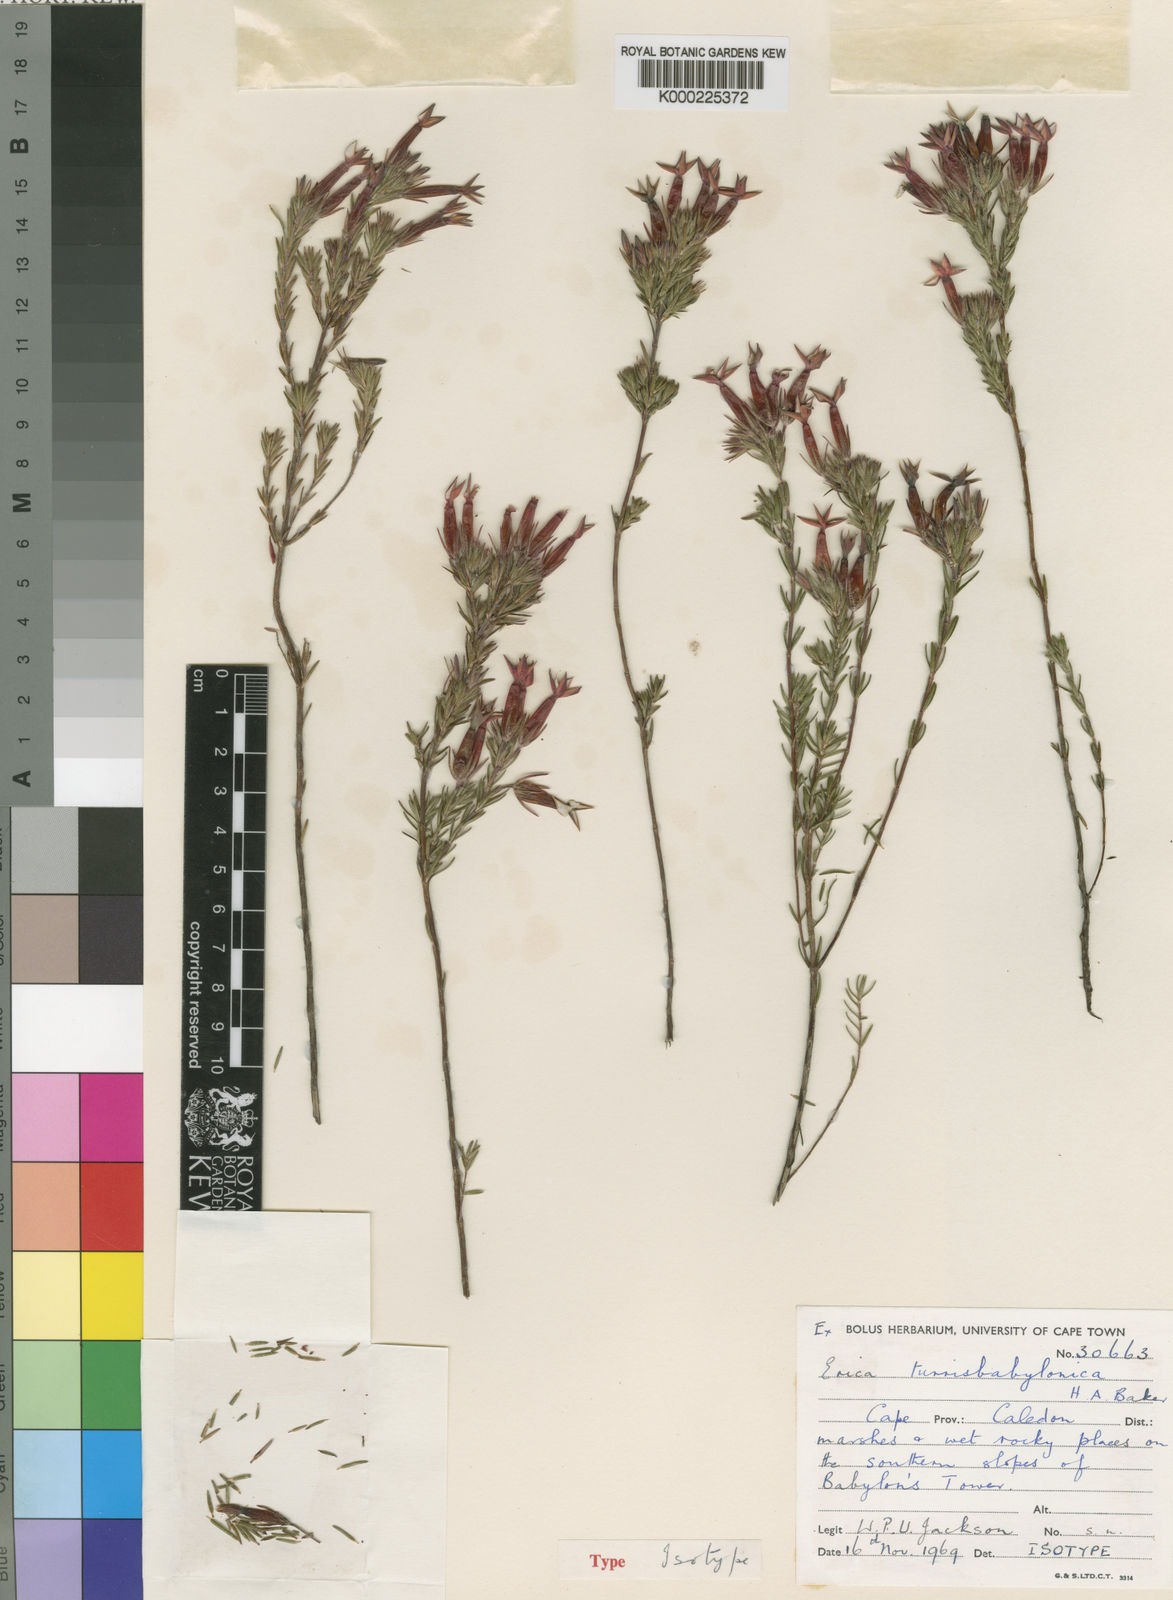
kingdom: Plantae
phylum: Tracheophyta
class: Magnoliopsida
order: Ericales
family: Ericaceae
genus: Erica
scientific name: Erica turrisbabylonica
